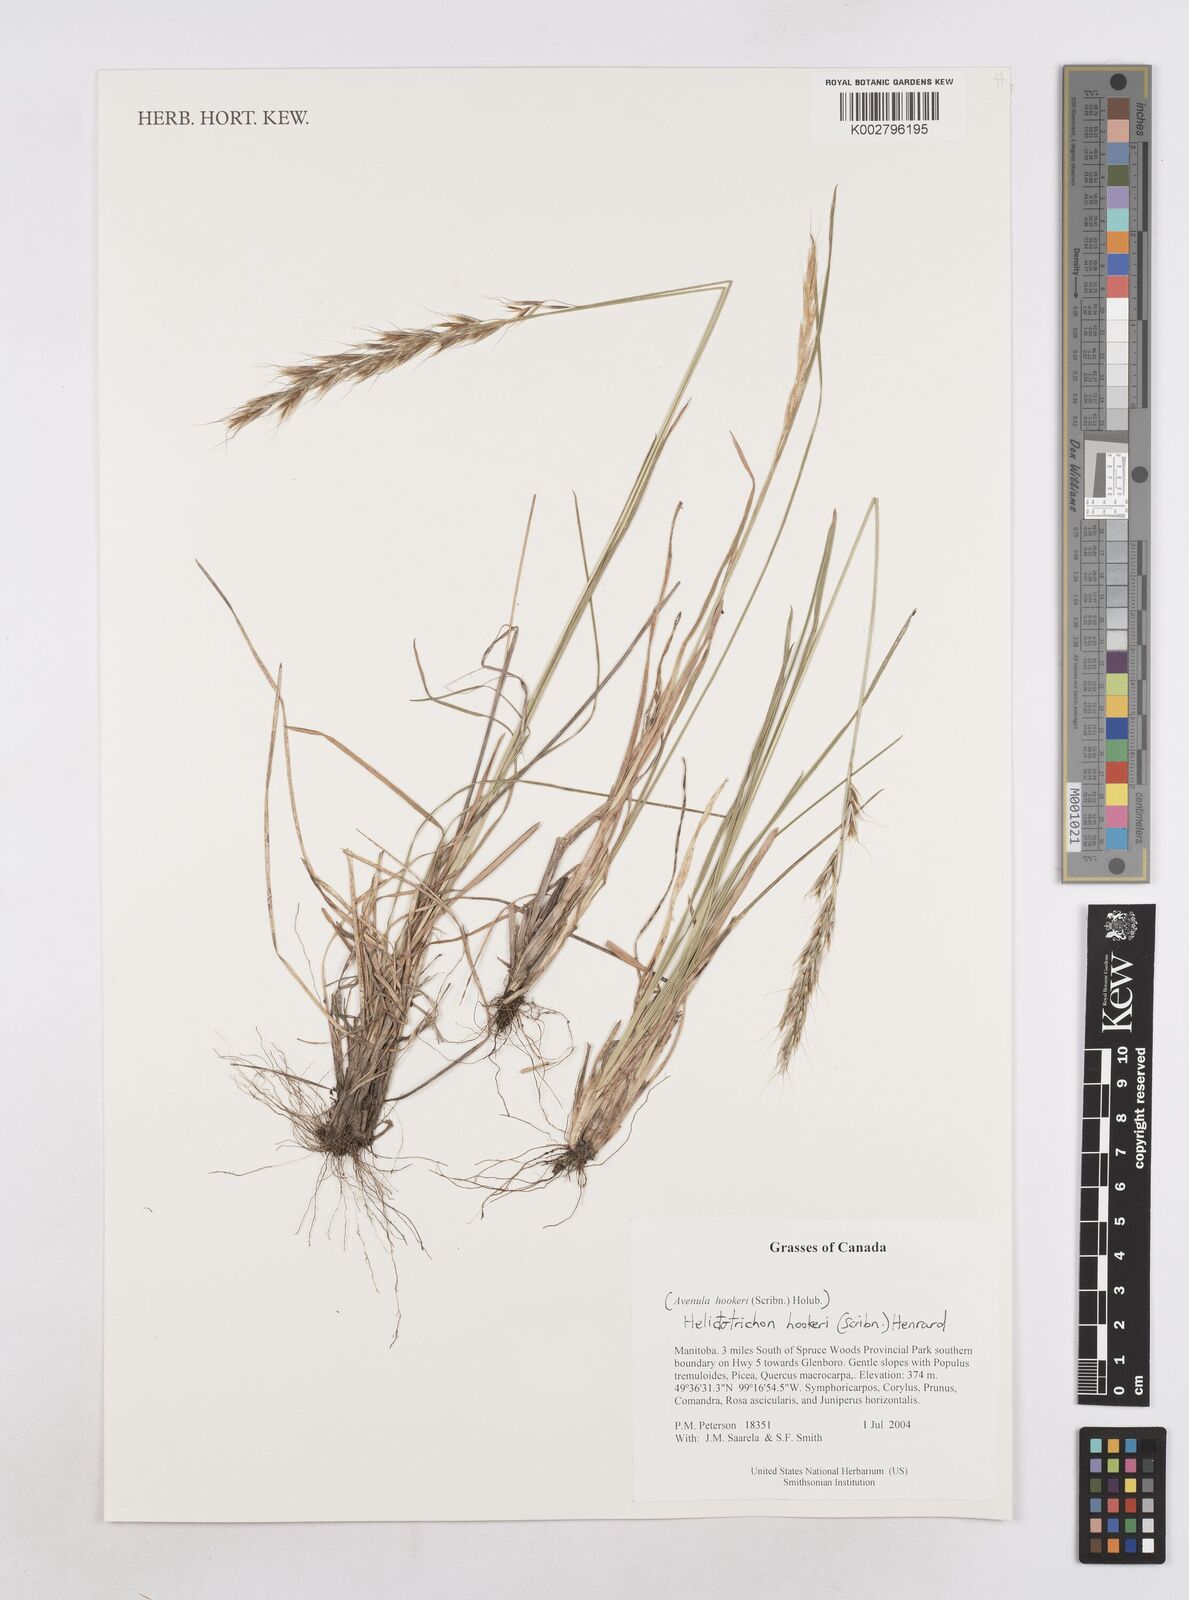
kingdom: Plantae
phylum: Tracheophyta
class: Liliopsida
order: Poales
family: Poaceae
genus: Helictochloa
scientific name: Helictochloa hookeri
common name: Hooker's alpine oatgrass
